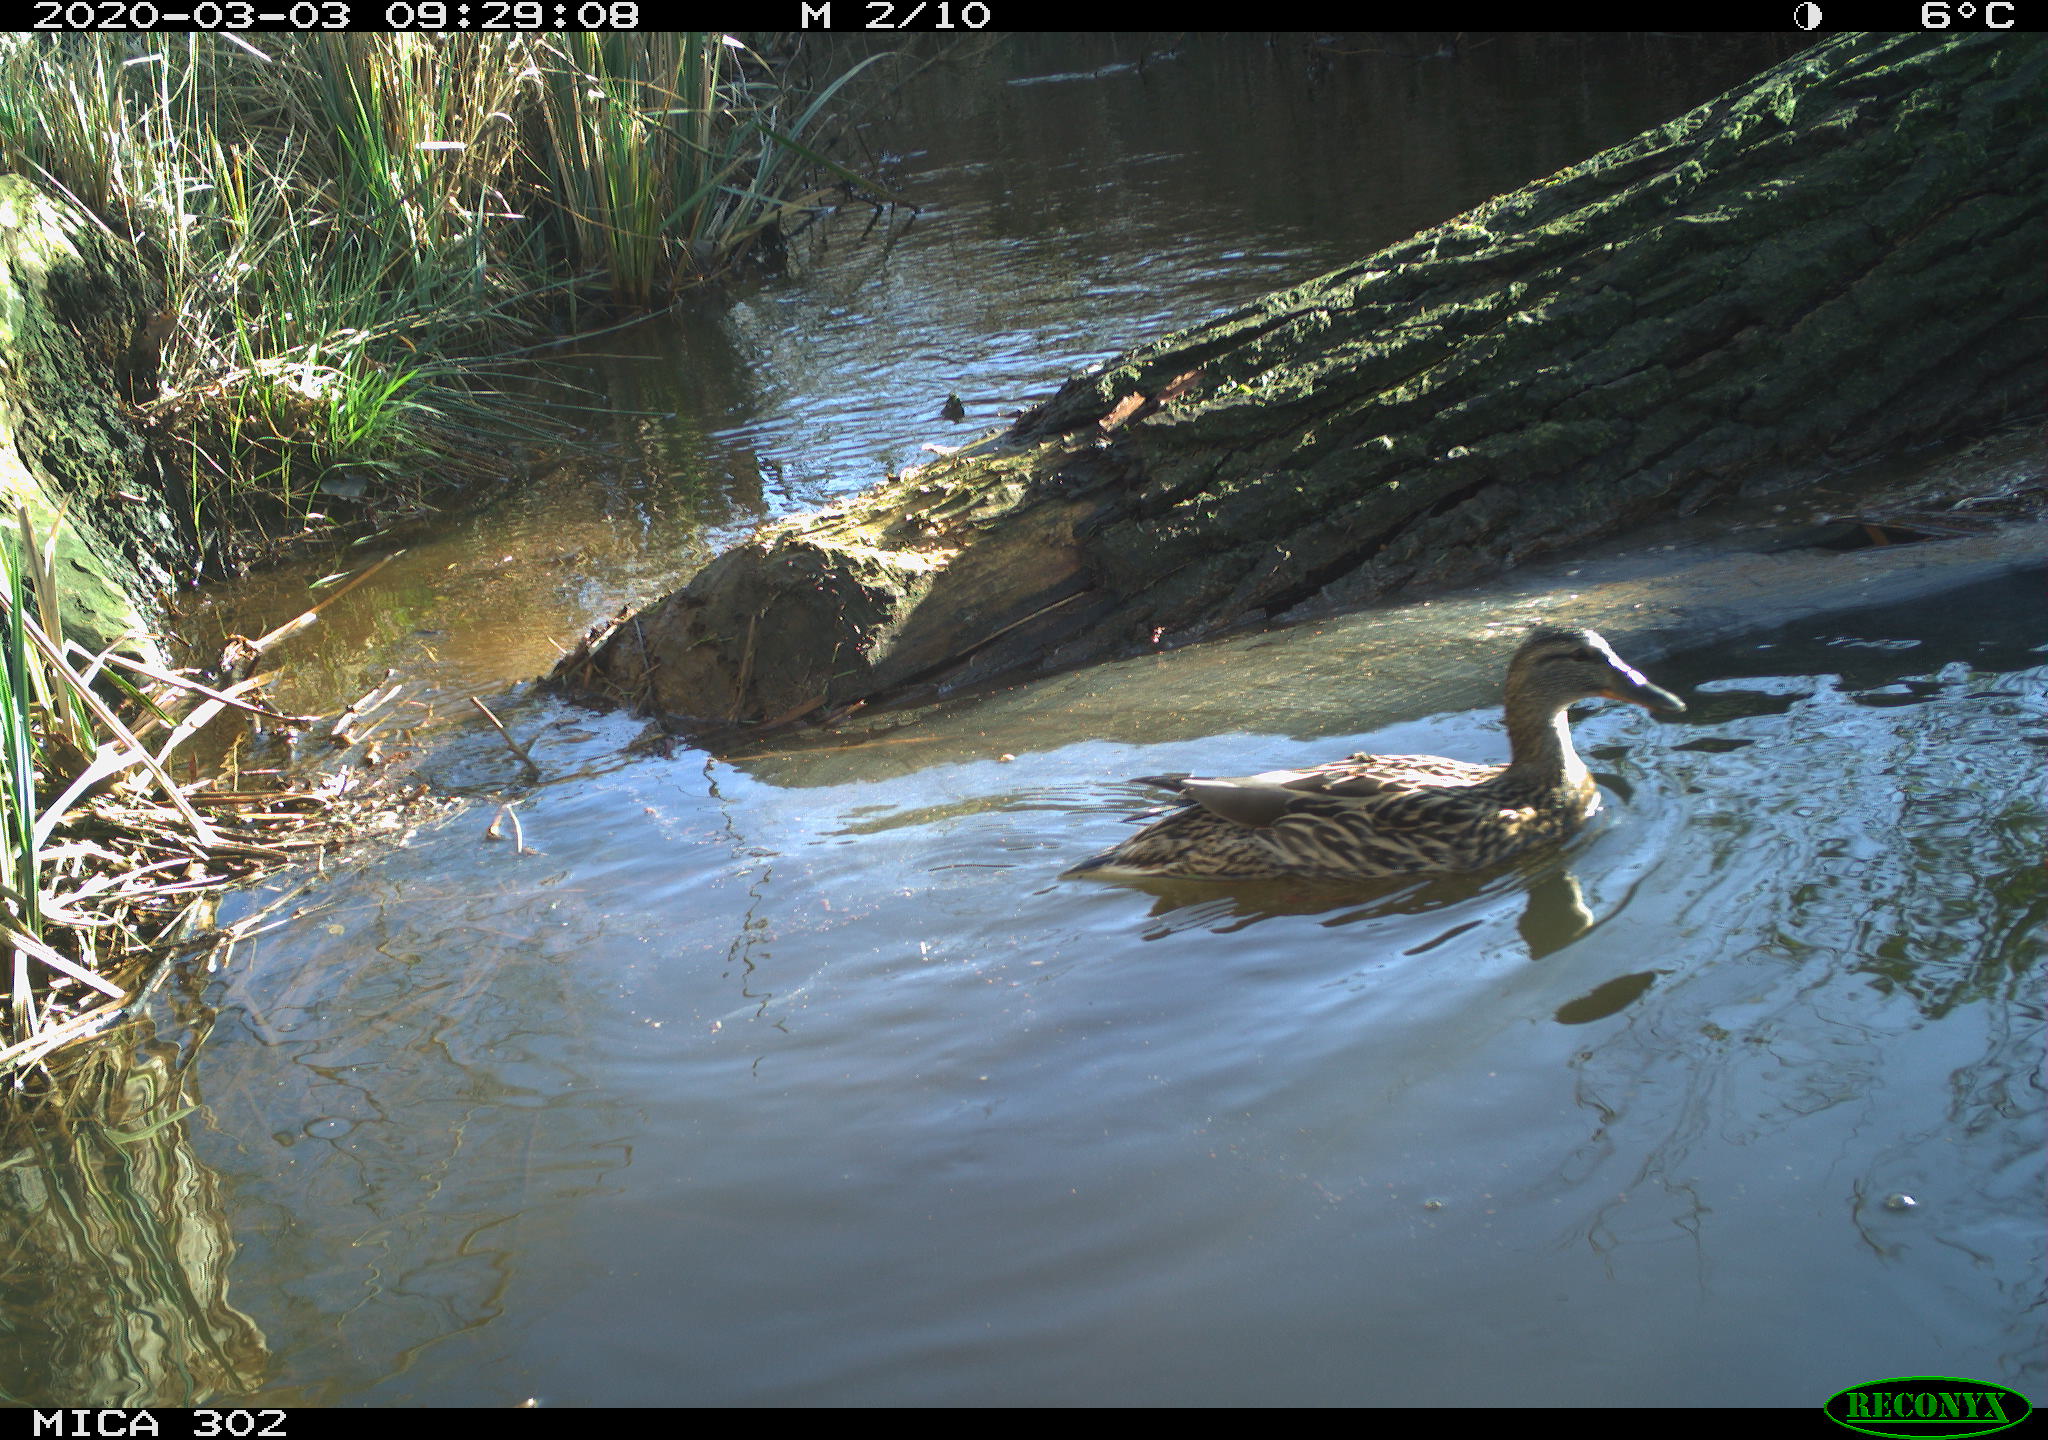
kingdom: Animalia
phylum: Chordata
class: Aves
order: Anseriformes
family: Anatidae
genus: Anas
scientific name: Anas platyrhynchos
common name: Mallard
